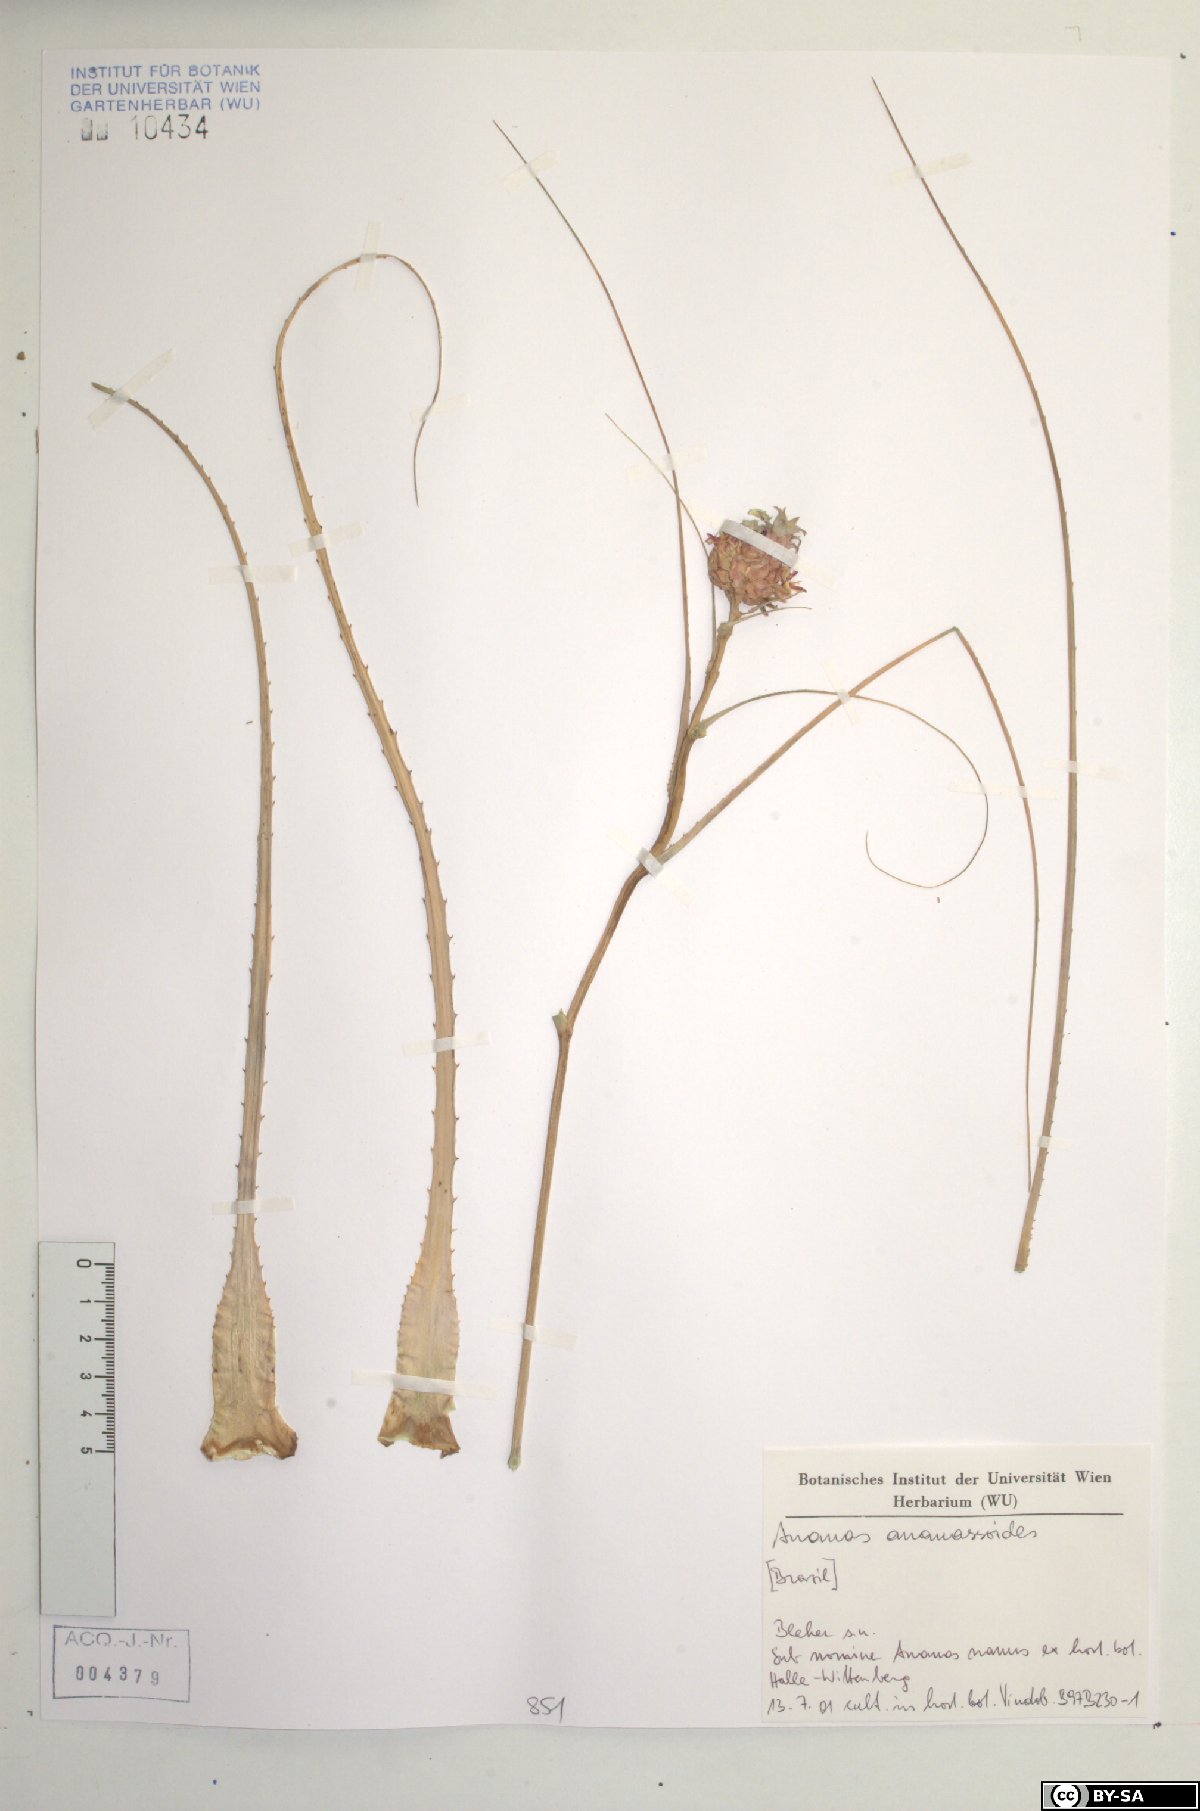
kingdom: Plantae
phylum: Tracheophyta
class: Liliopsida
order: Poales
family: Bromeliaceae
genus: Ananas
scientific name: Ananas comosus
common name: Pineapple
